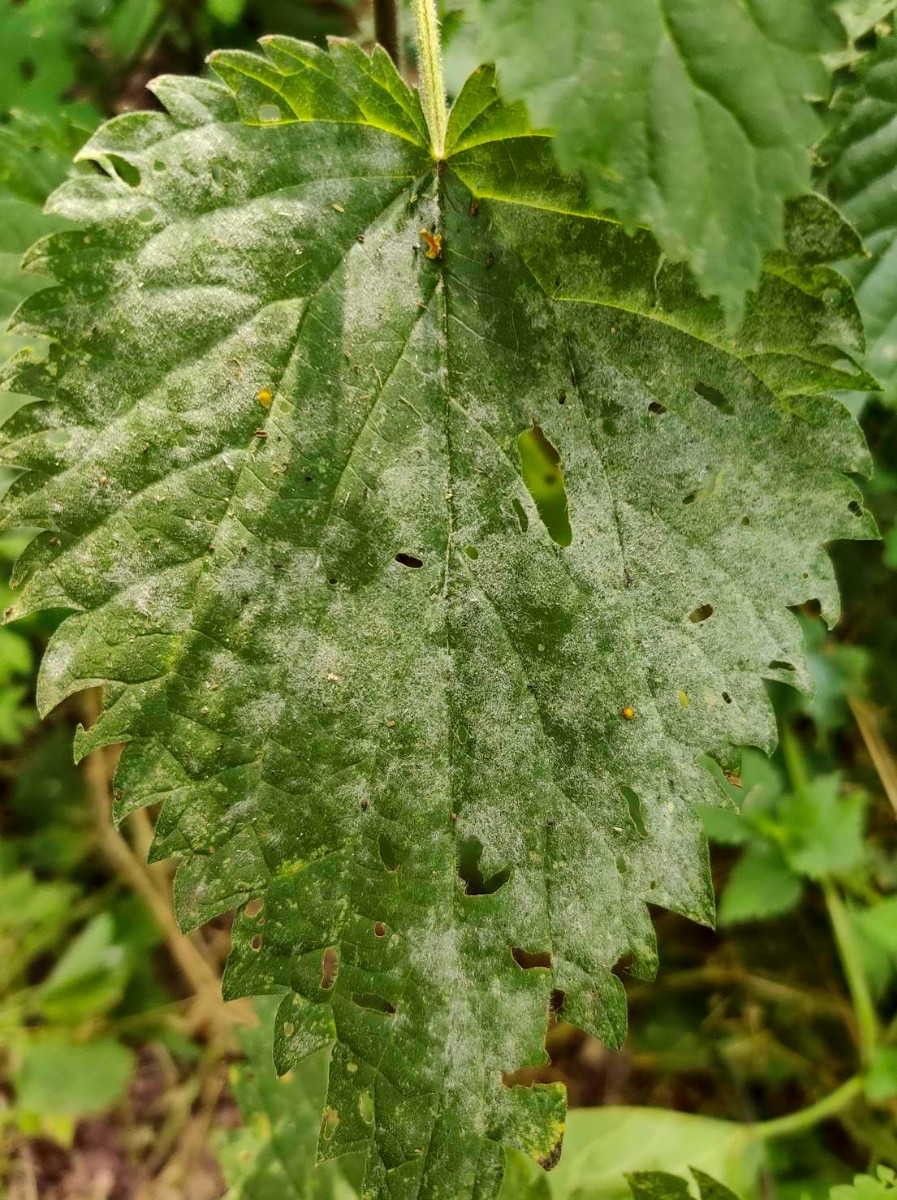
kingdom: Fungi
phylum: Ascomycota
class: Leotiomycetes
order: Helotiales
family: Erysiphaceae
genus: Erysiphe
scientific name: Erysiphe urticae
